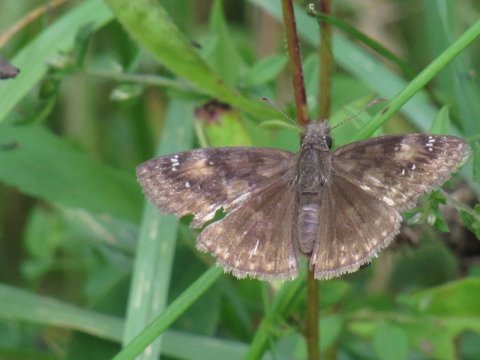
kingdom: Animalia
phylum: Arthropoda
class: Insecta
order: Lepidoptera
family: Hesperiidae
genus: Gesta
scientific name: Gesta
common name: Wild Indigo Duskywing
